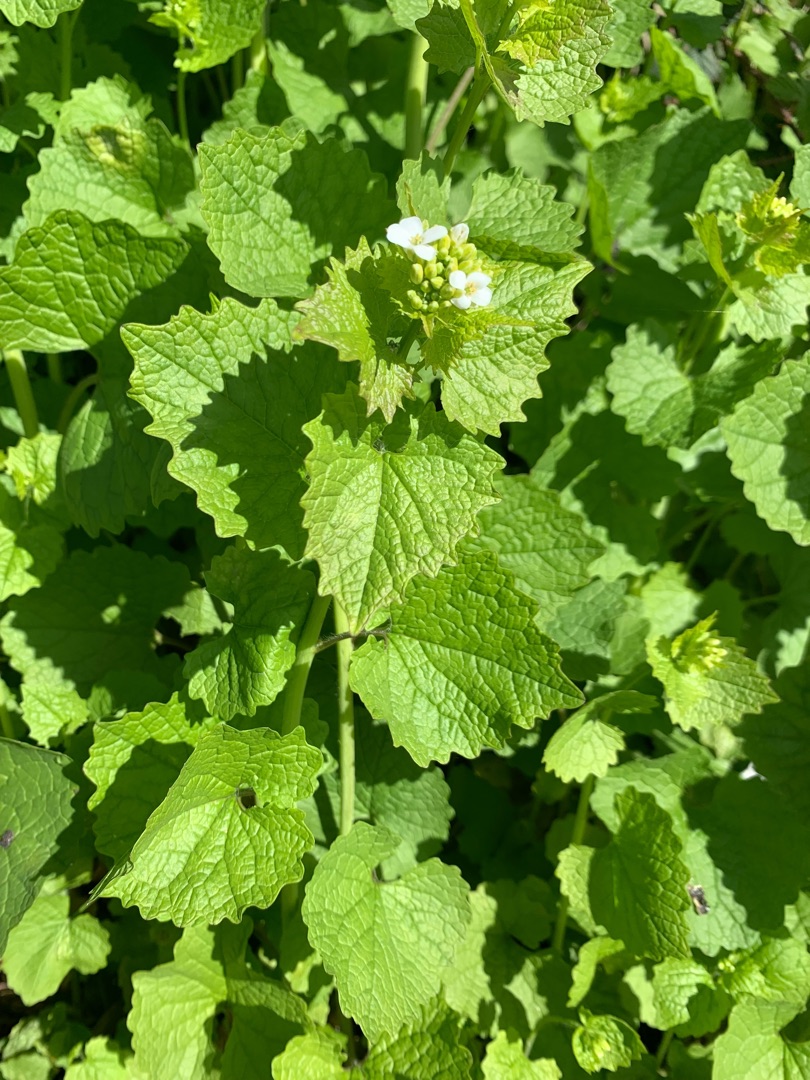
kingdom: Plantae
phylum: Tracheophyta
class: Magnoliopsida
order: Brassicales
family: Brassicaceae
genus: Alliaria
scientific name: Alliaria petiolata
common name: Løgkarse
